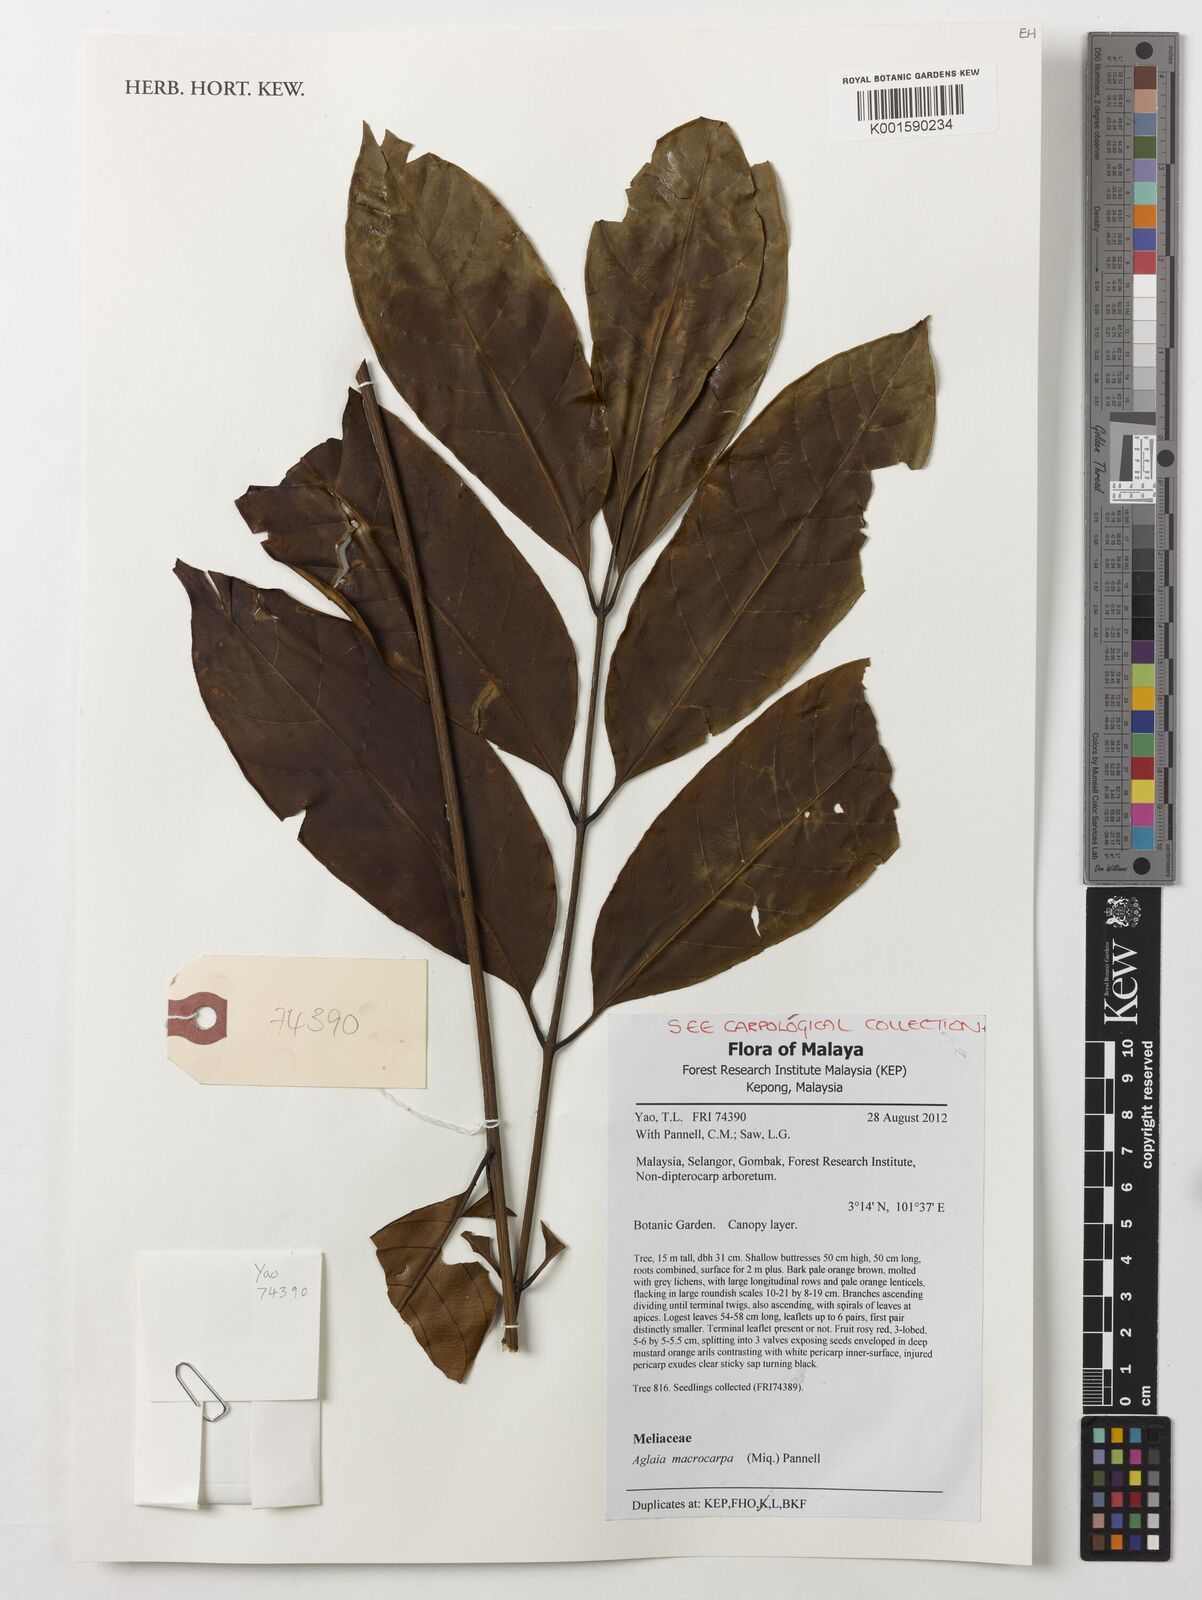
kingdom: Plantae
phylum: Tracheophyta
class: Magnoliopsida
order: Sapindales
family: Meliaceae
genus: Aglaia
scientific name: Aglaia macrocarpa
